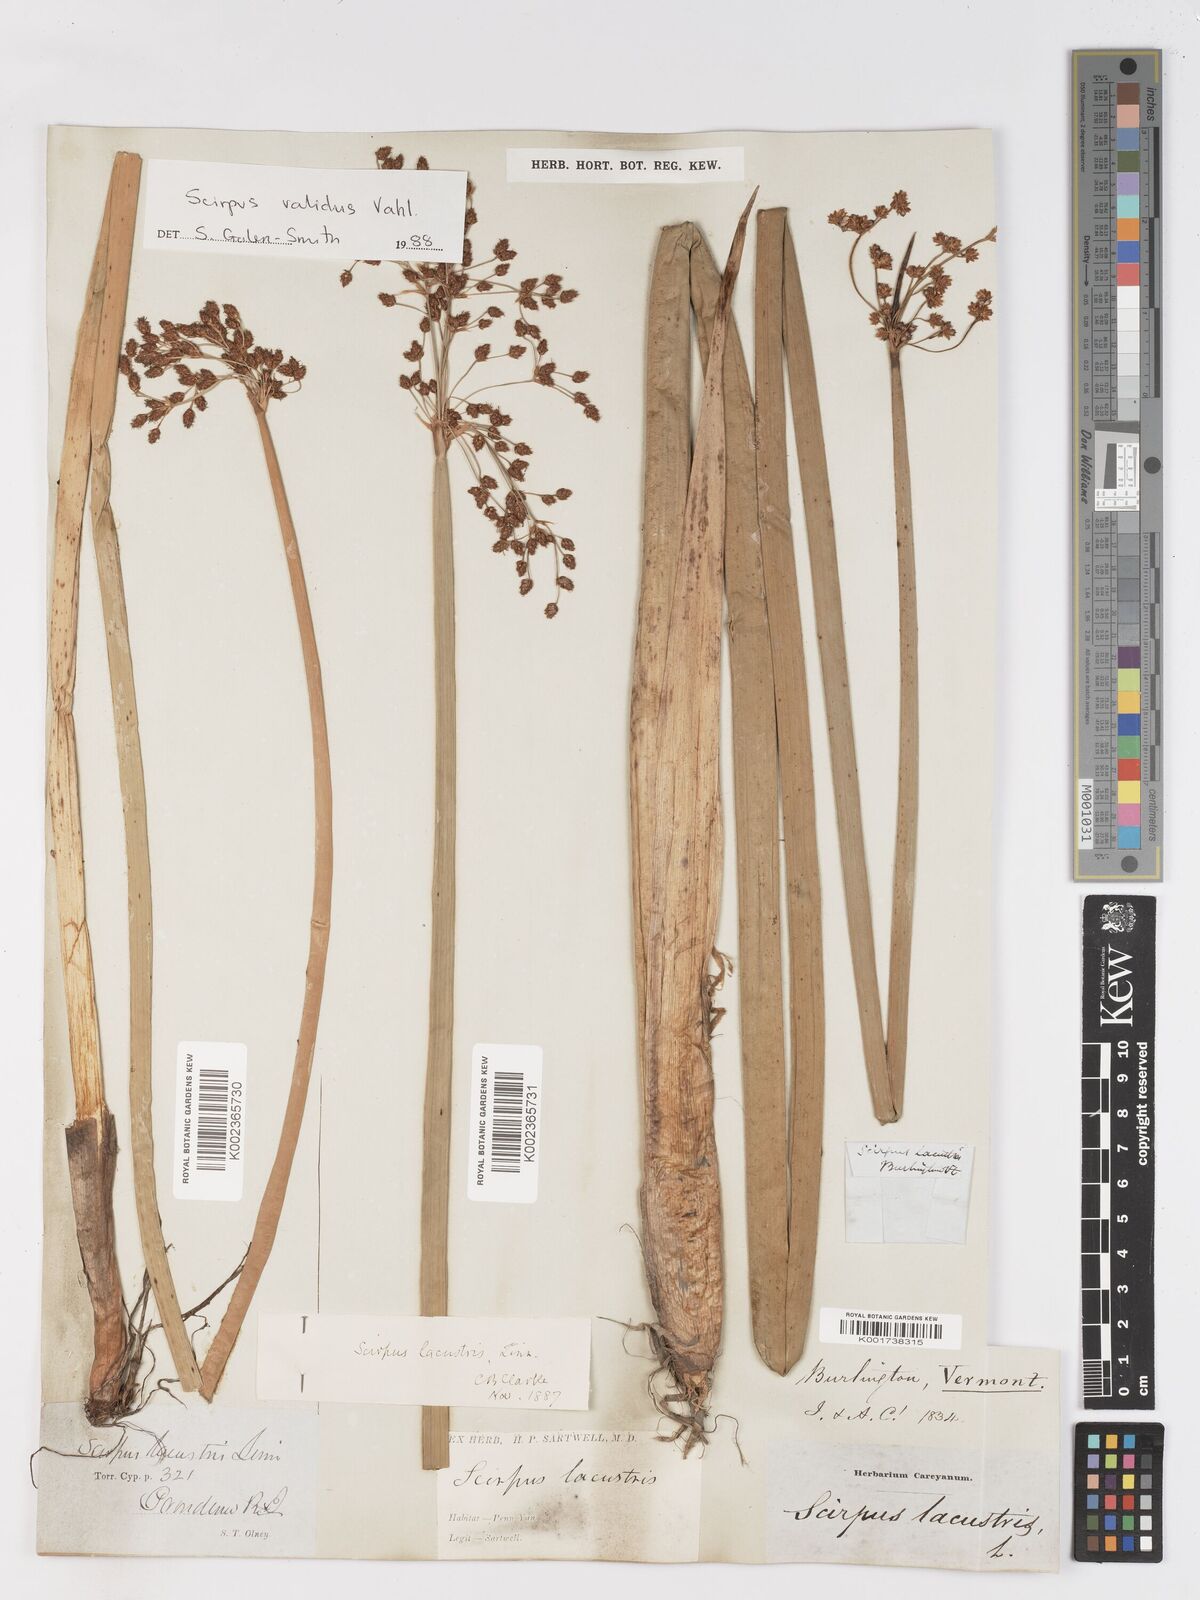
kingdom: Plantae
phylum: Tracheophyta
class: Liliopsida
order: Poales
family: Cyperaceae
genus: Schoenoplectus
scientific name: Schoenoplectus lacustris
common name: Common club-rush
